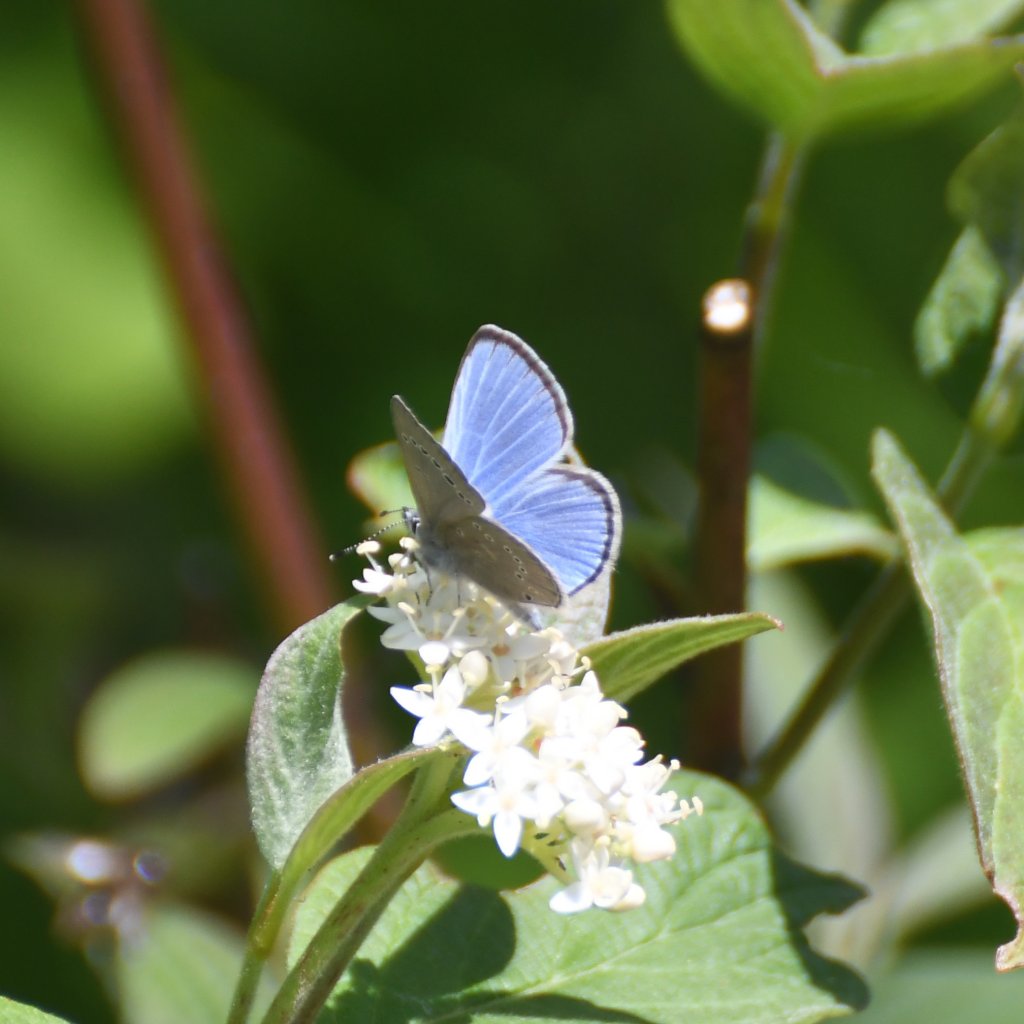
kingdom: Animalia
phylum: Arthropoda
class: Insecta
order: Lepidoptera
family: Lycaenidae
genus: Glaucopsyche
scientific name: Glaucopsyche lygdamus
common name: Silvery Blue
